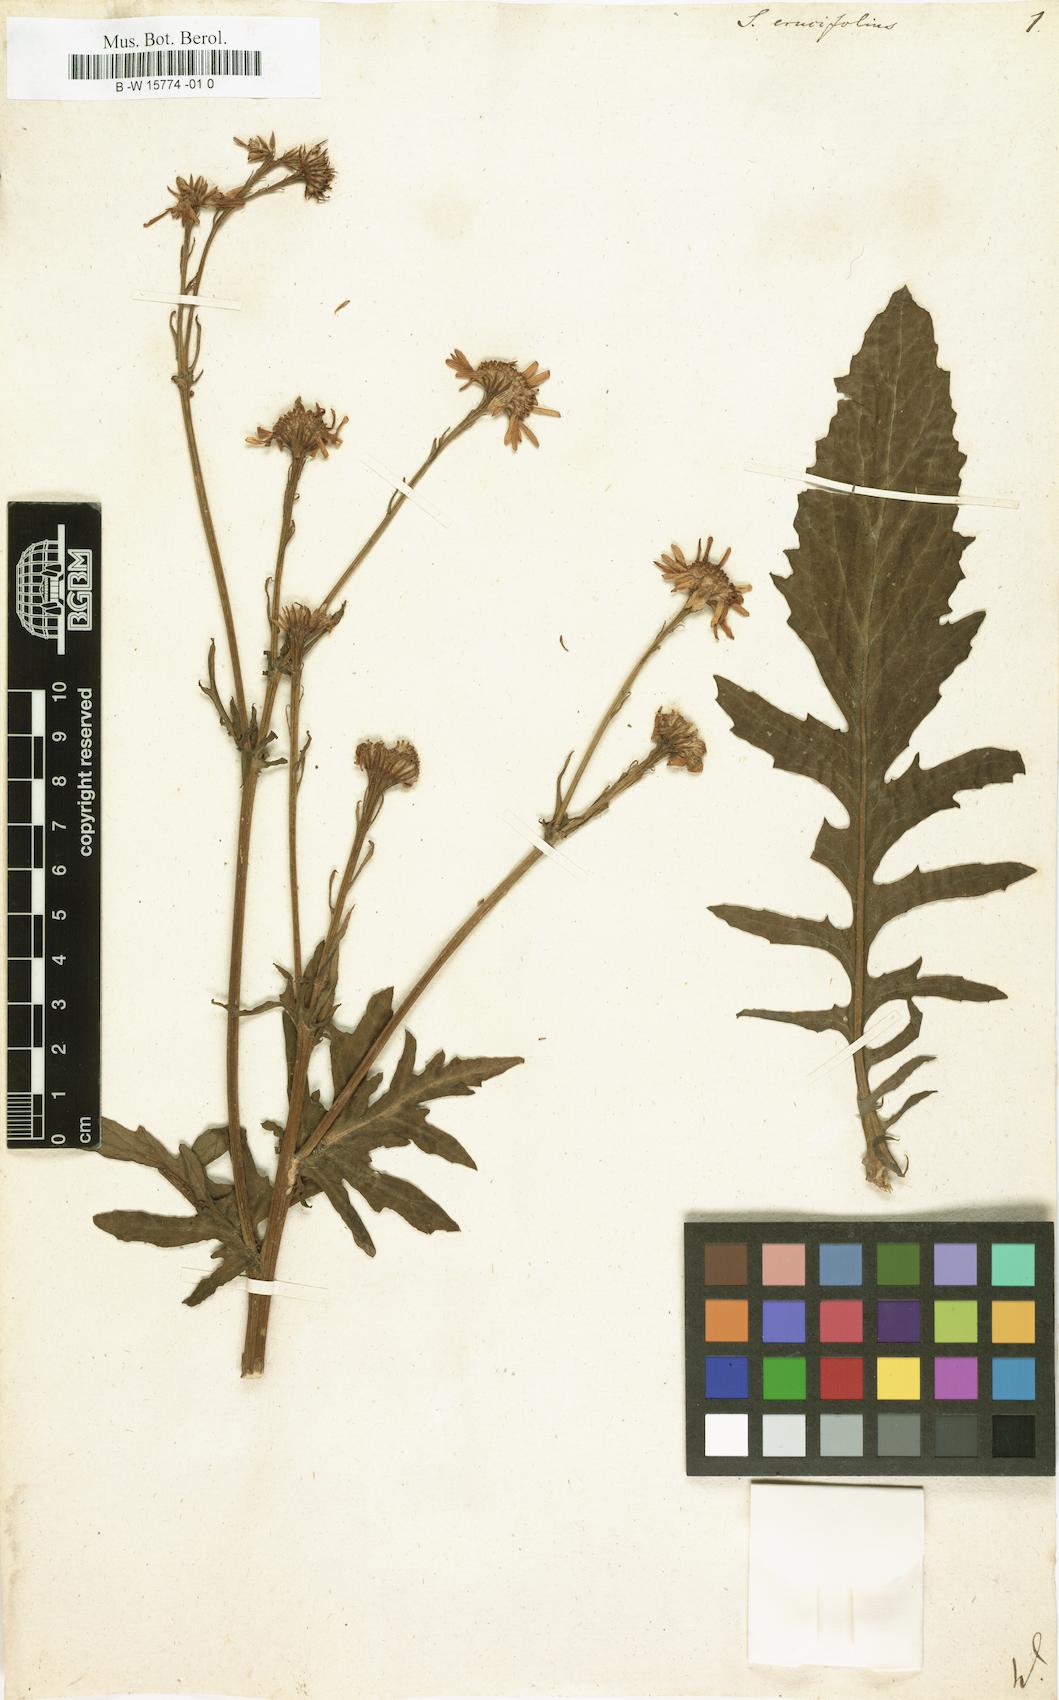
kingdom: Plantae
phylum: Tracheophyta
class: Magnoliopsida
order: Asterales
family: Asteraceae
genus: Jacobaea
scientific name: Jacobaea
